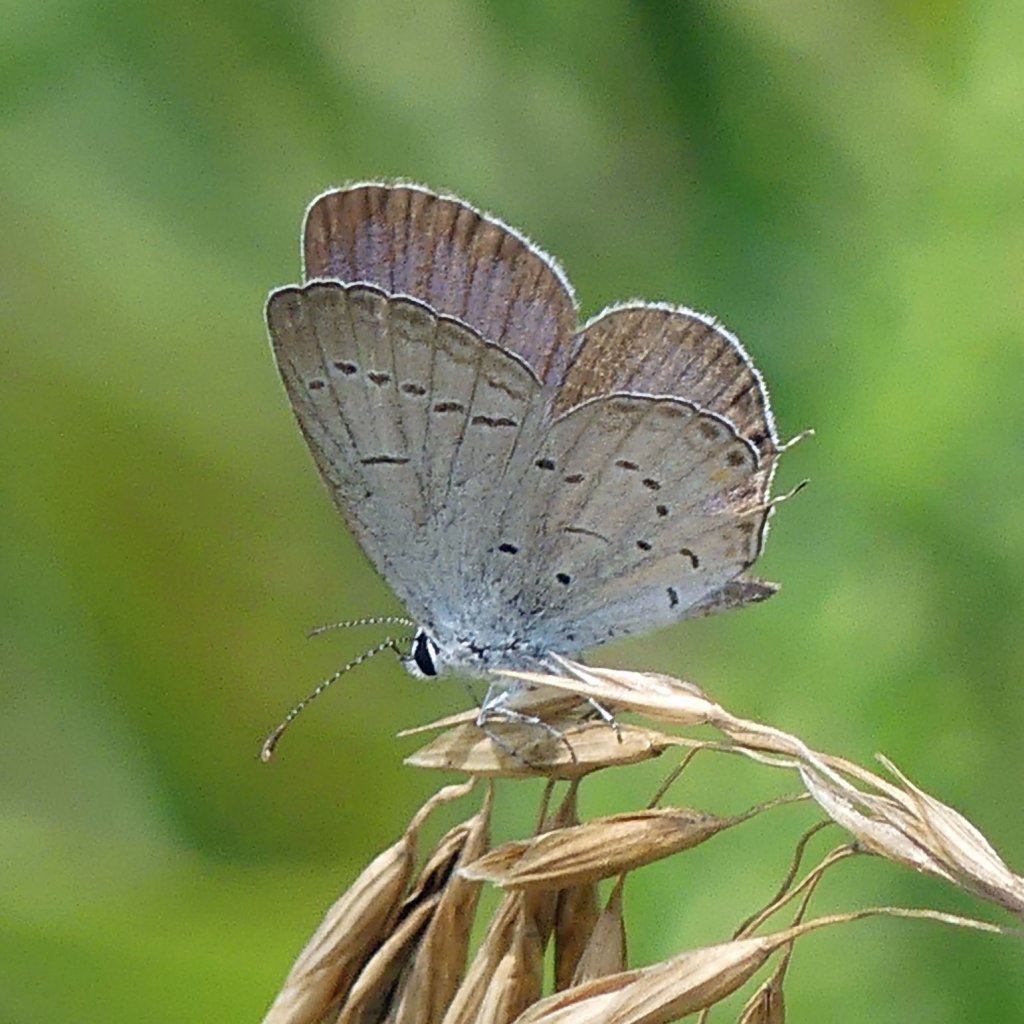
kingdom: Animalia
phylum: Arthropoda
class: Insecta
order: Lepidoptera
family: Lycaenidae
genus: Elkalyce
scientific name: Elkalyce comyntas
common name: Eastern Tailed-Blue
